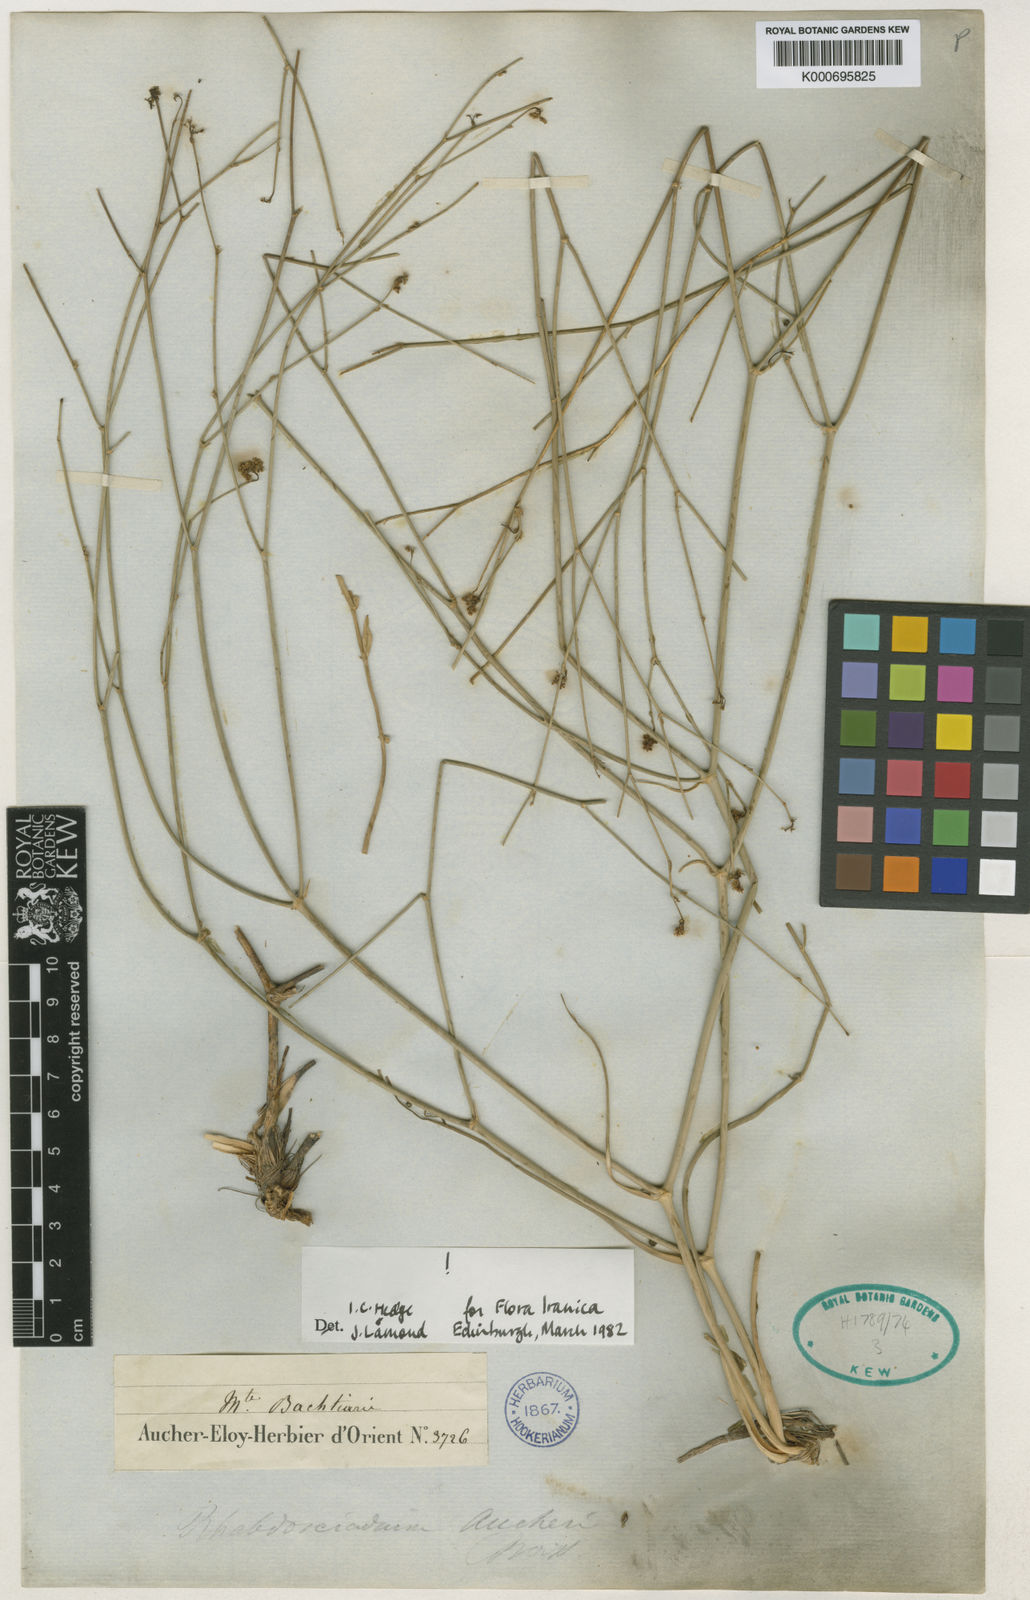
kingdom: Plantae
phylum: Tracheophyta
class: Magnoliopsida
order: Apiales
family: Apiaceae
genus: Rhabdosciadium
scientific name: Rhabdosciadium aucheri
